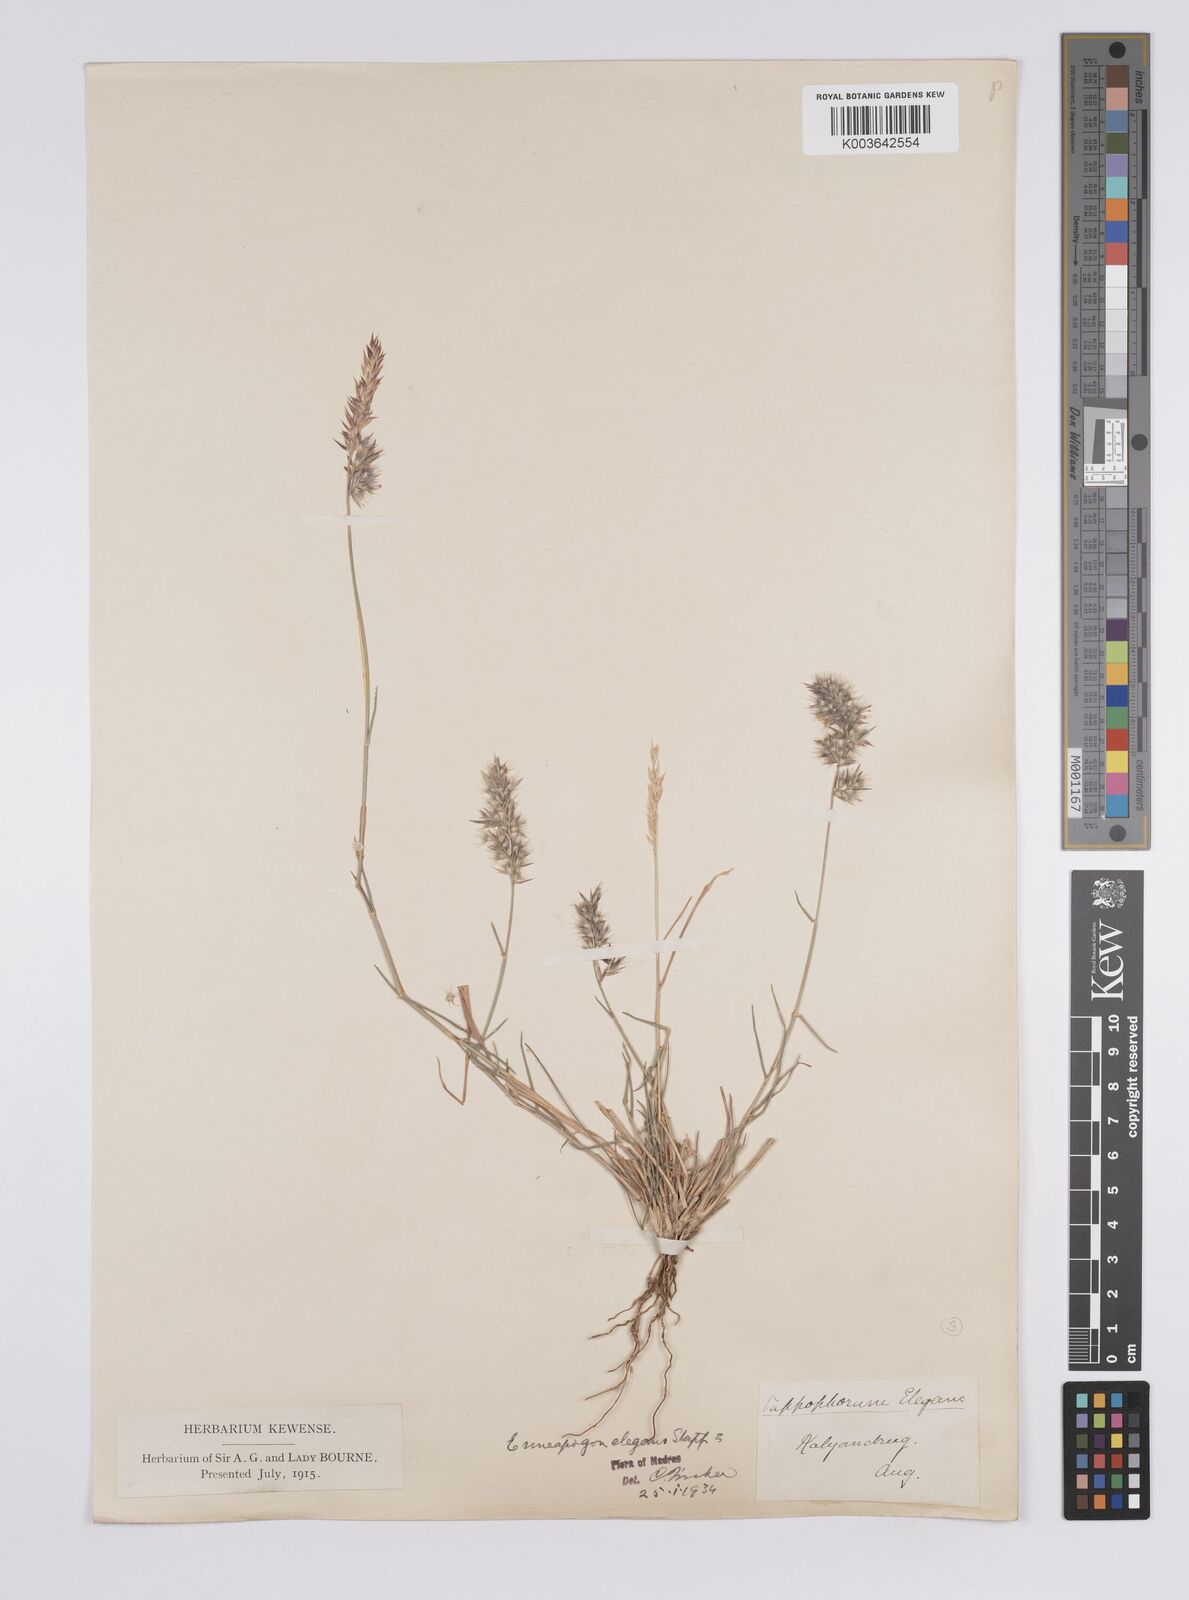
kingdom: Plantae
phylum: Tracheophyta
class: Liliopsida
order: Poales
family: Poaceae
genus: Enneapogon
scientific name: Enneapogon persicus
